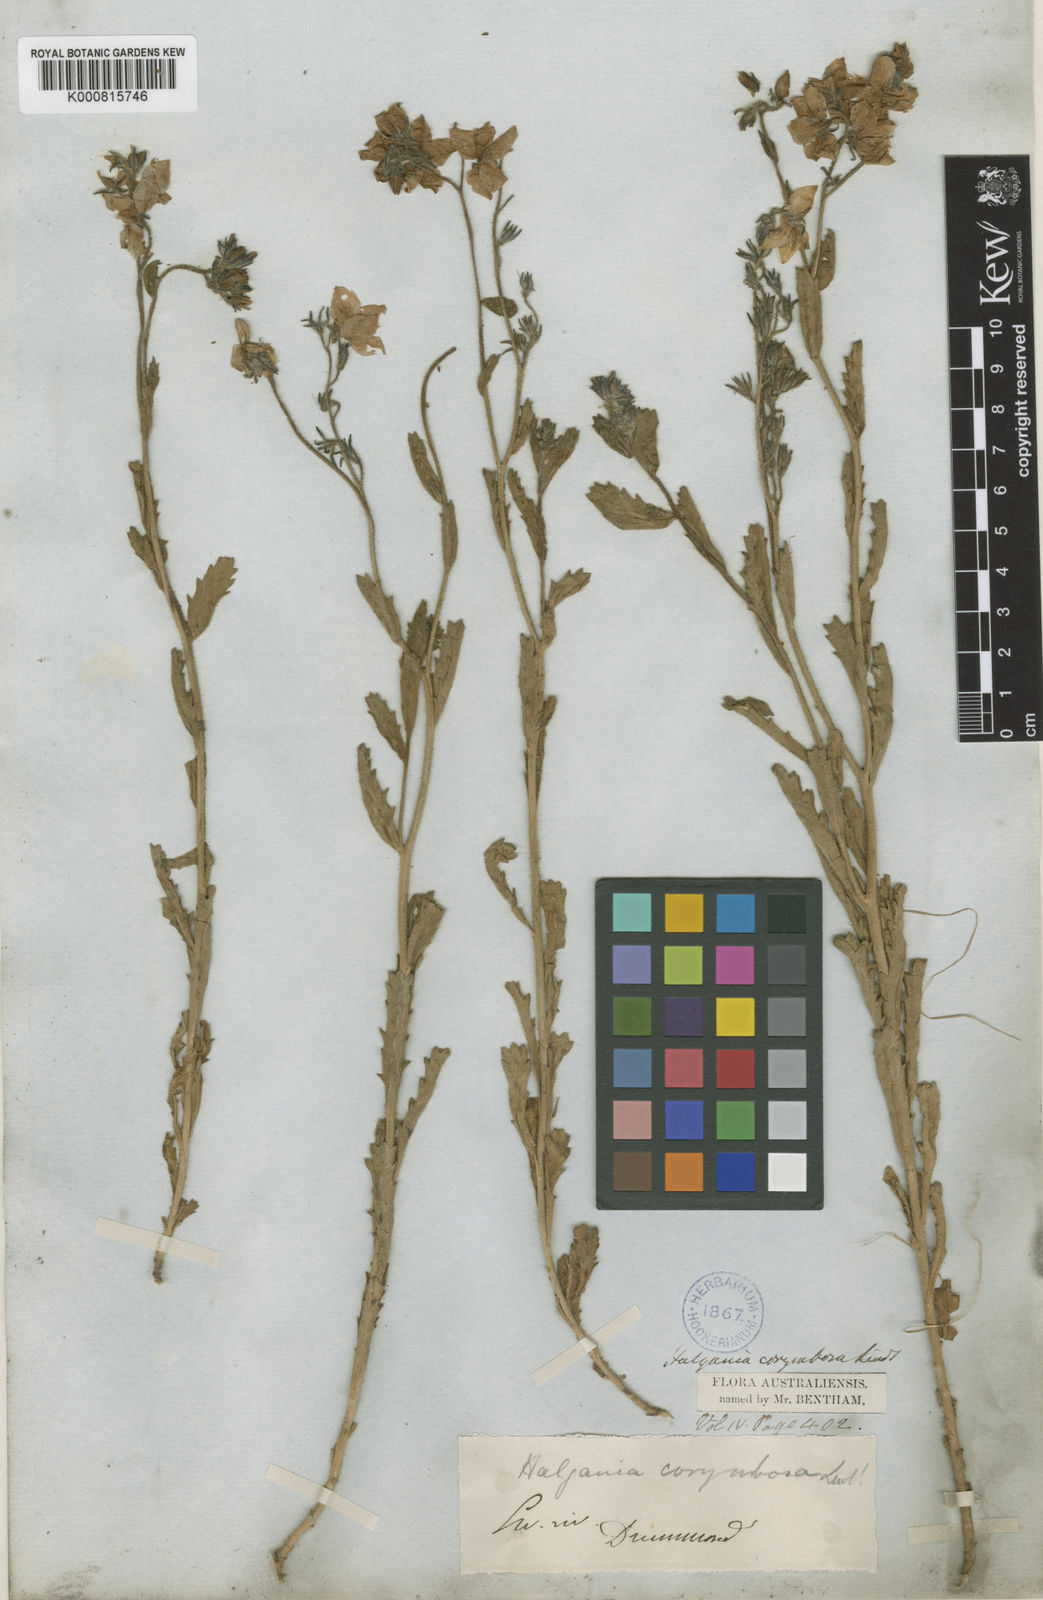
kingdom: Plantae
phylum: Tracheophyta
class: Magnoliopsida
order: Boraginales
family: Ehretiaceae
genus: Halgania
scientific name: Halgania corymbosa
